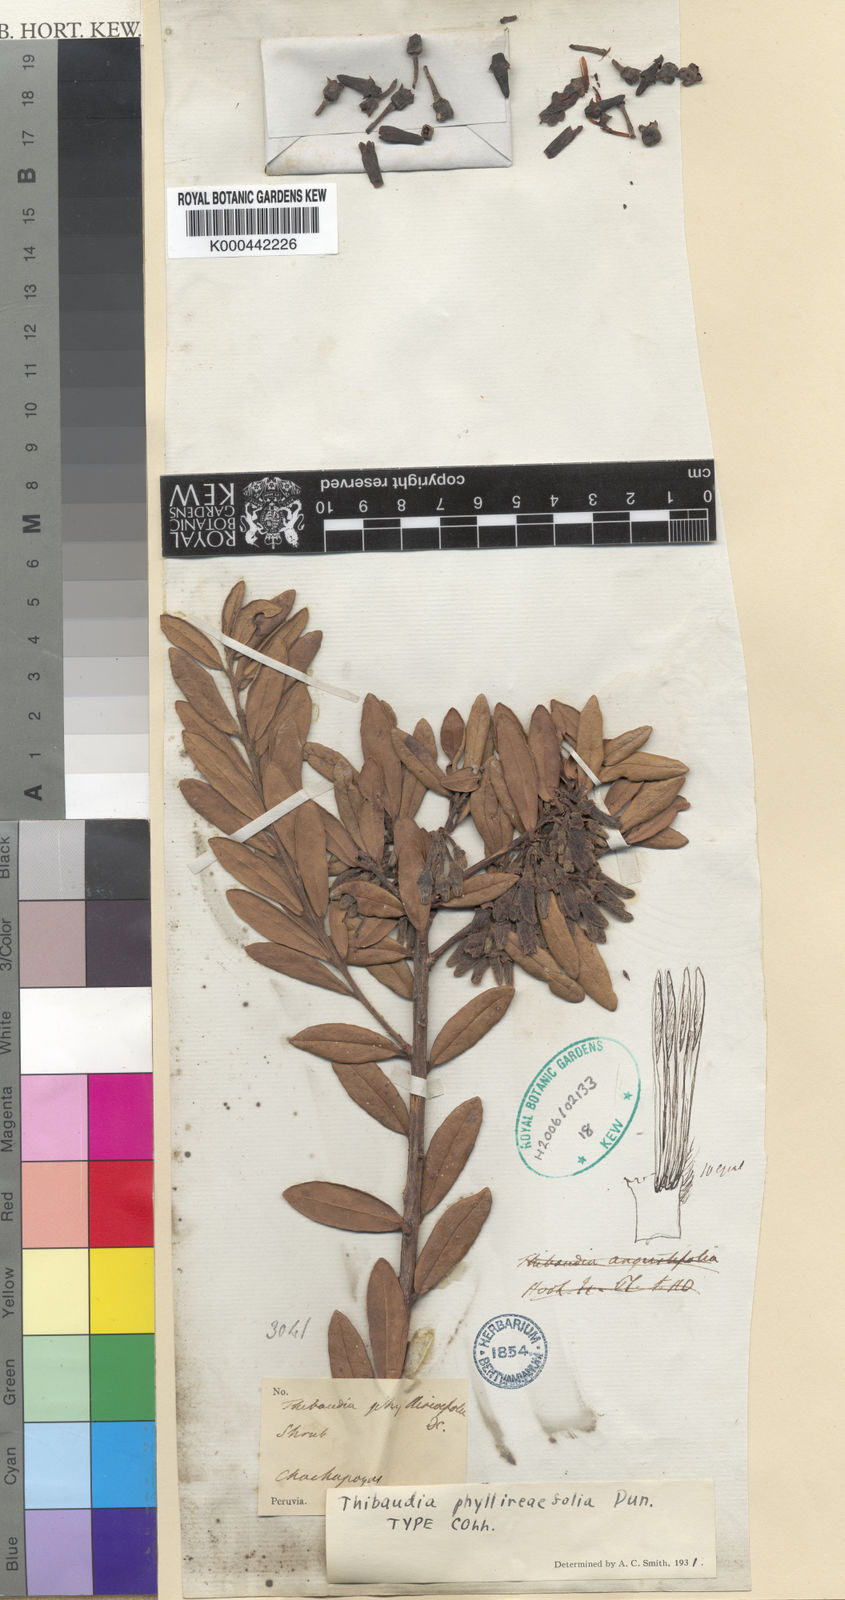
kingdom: Plantae
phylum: Tracheophyta
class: Magnoliopsida
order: Ericales
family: Ericaceae
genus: Thibaudia
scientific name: Thibaudia phyllireifolia
